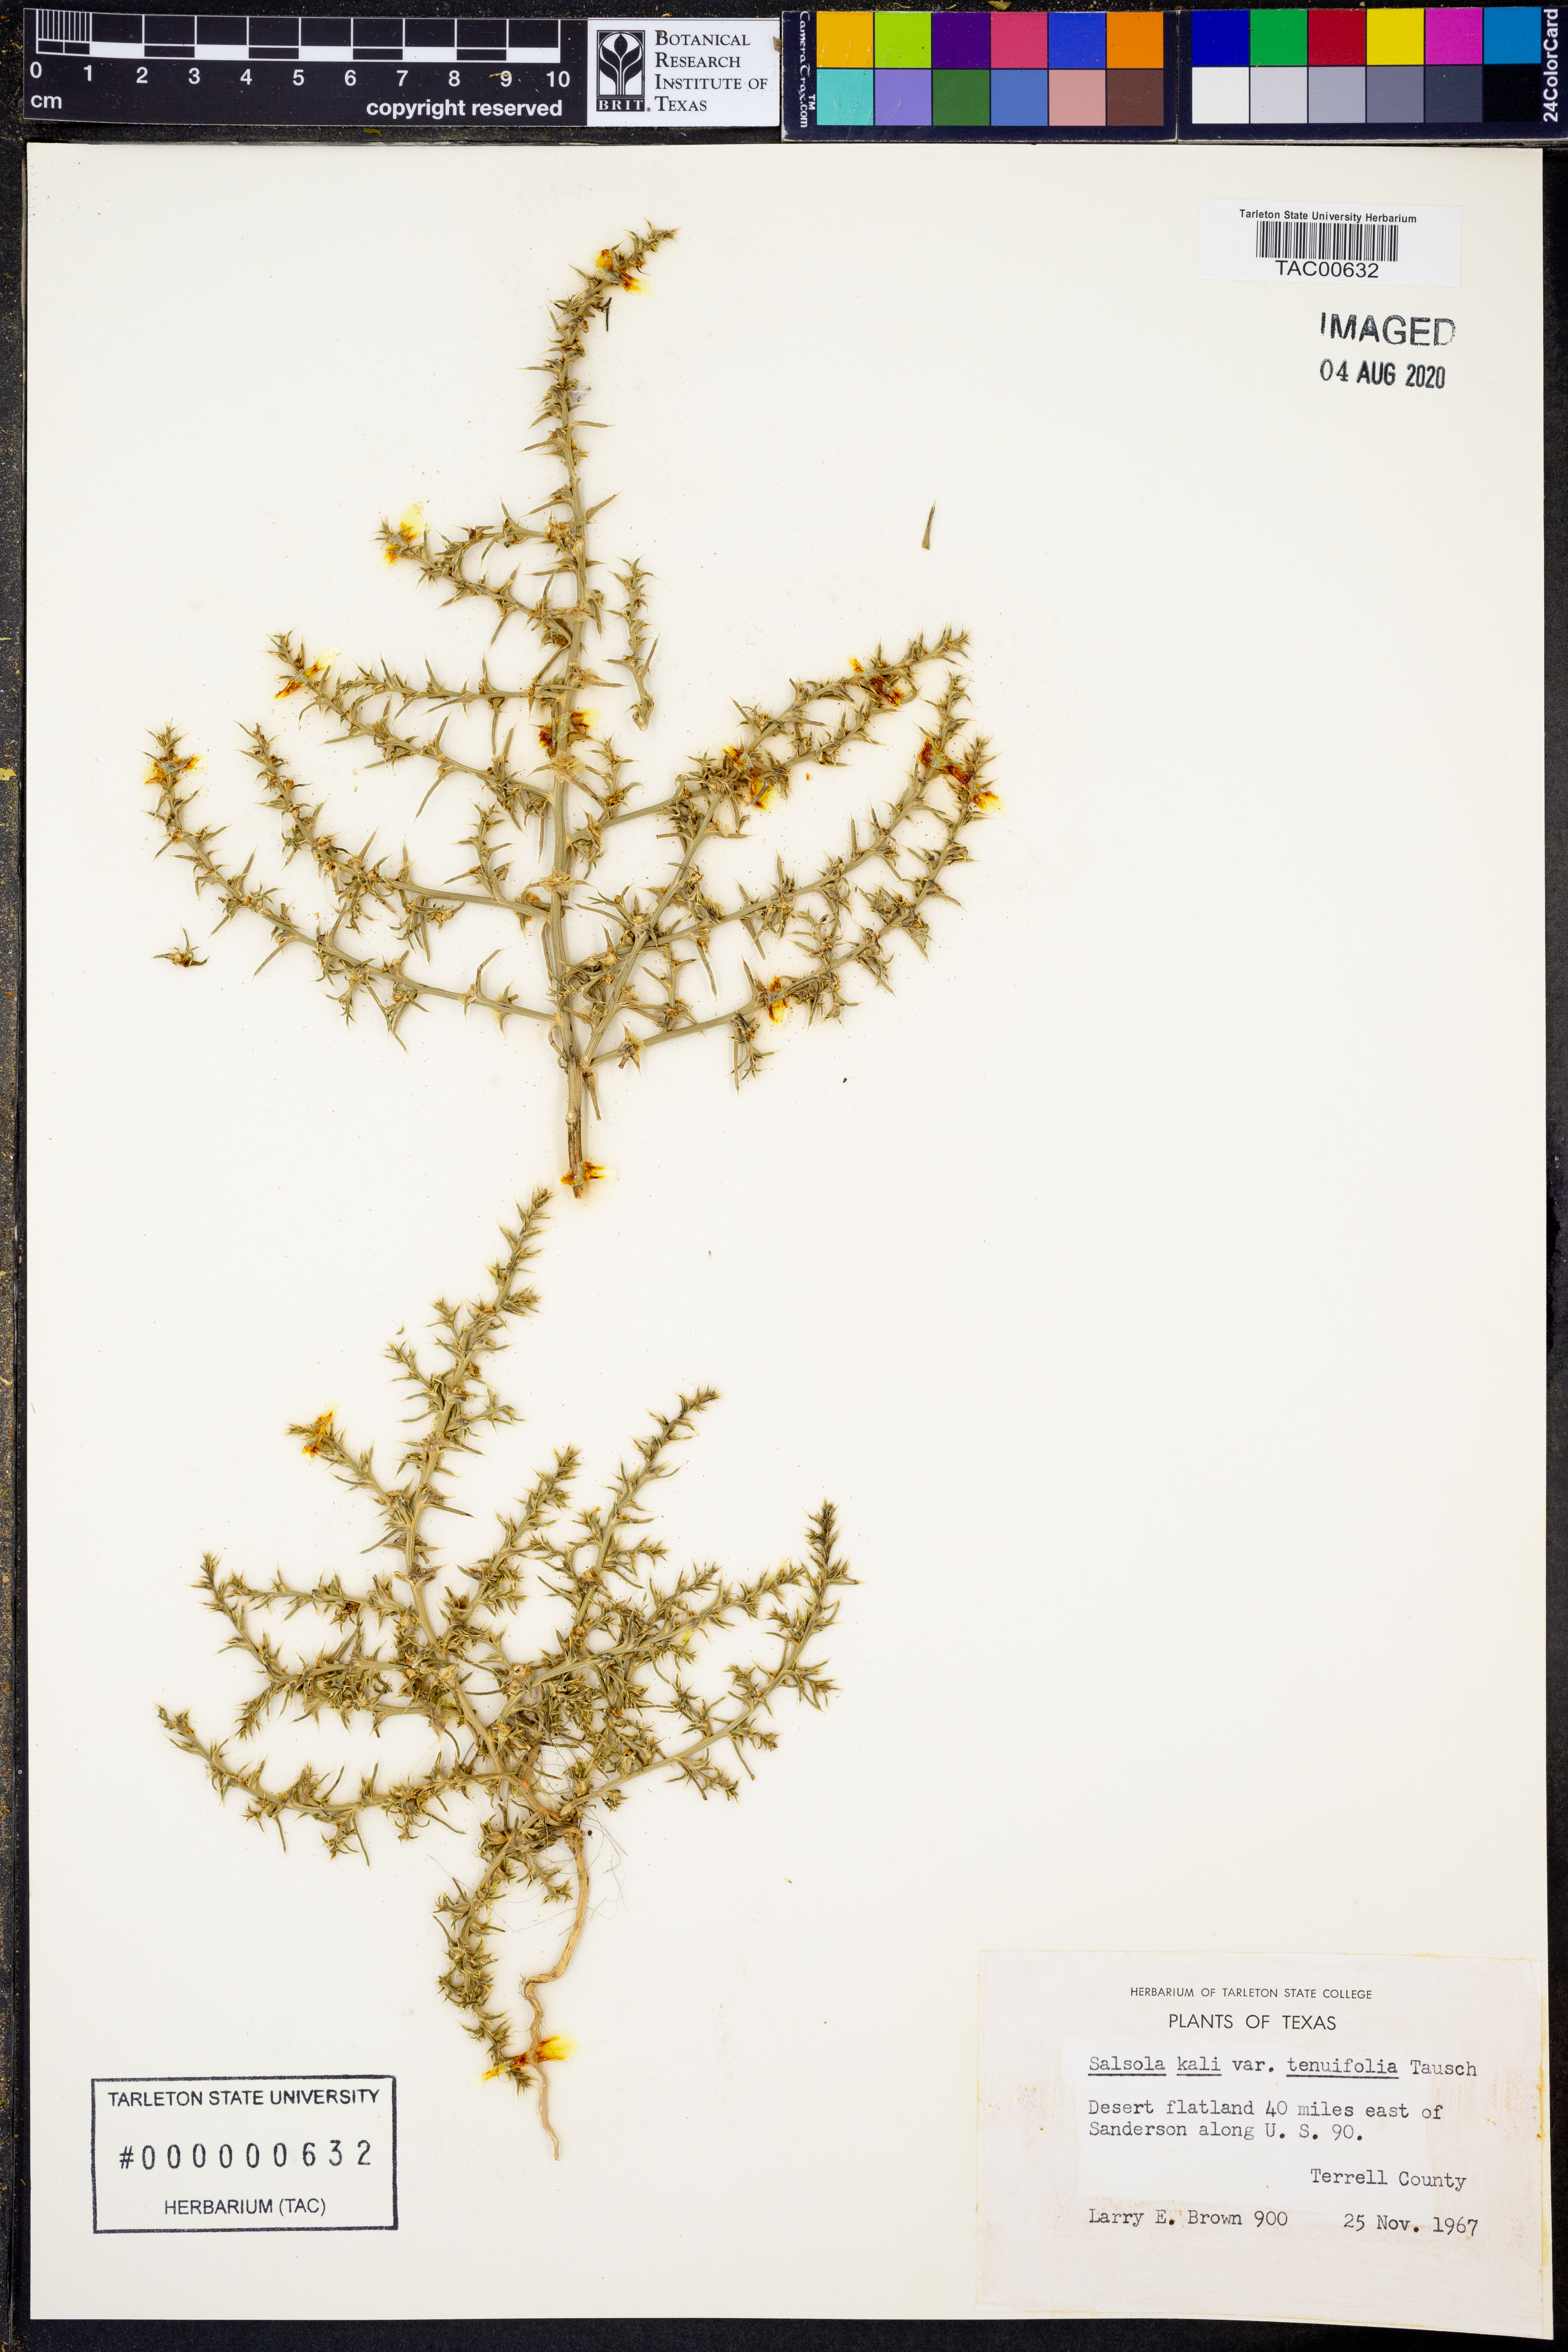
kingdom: Plantae
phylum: Tracheophyta
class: Magnoliopsida
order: Caryophyllales
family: Amaranthaceae
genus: Salsola
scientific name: Salsola tragus
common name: Prickly russian thistle
